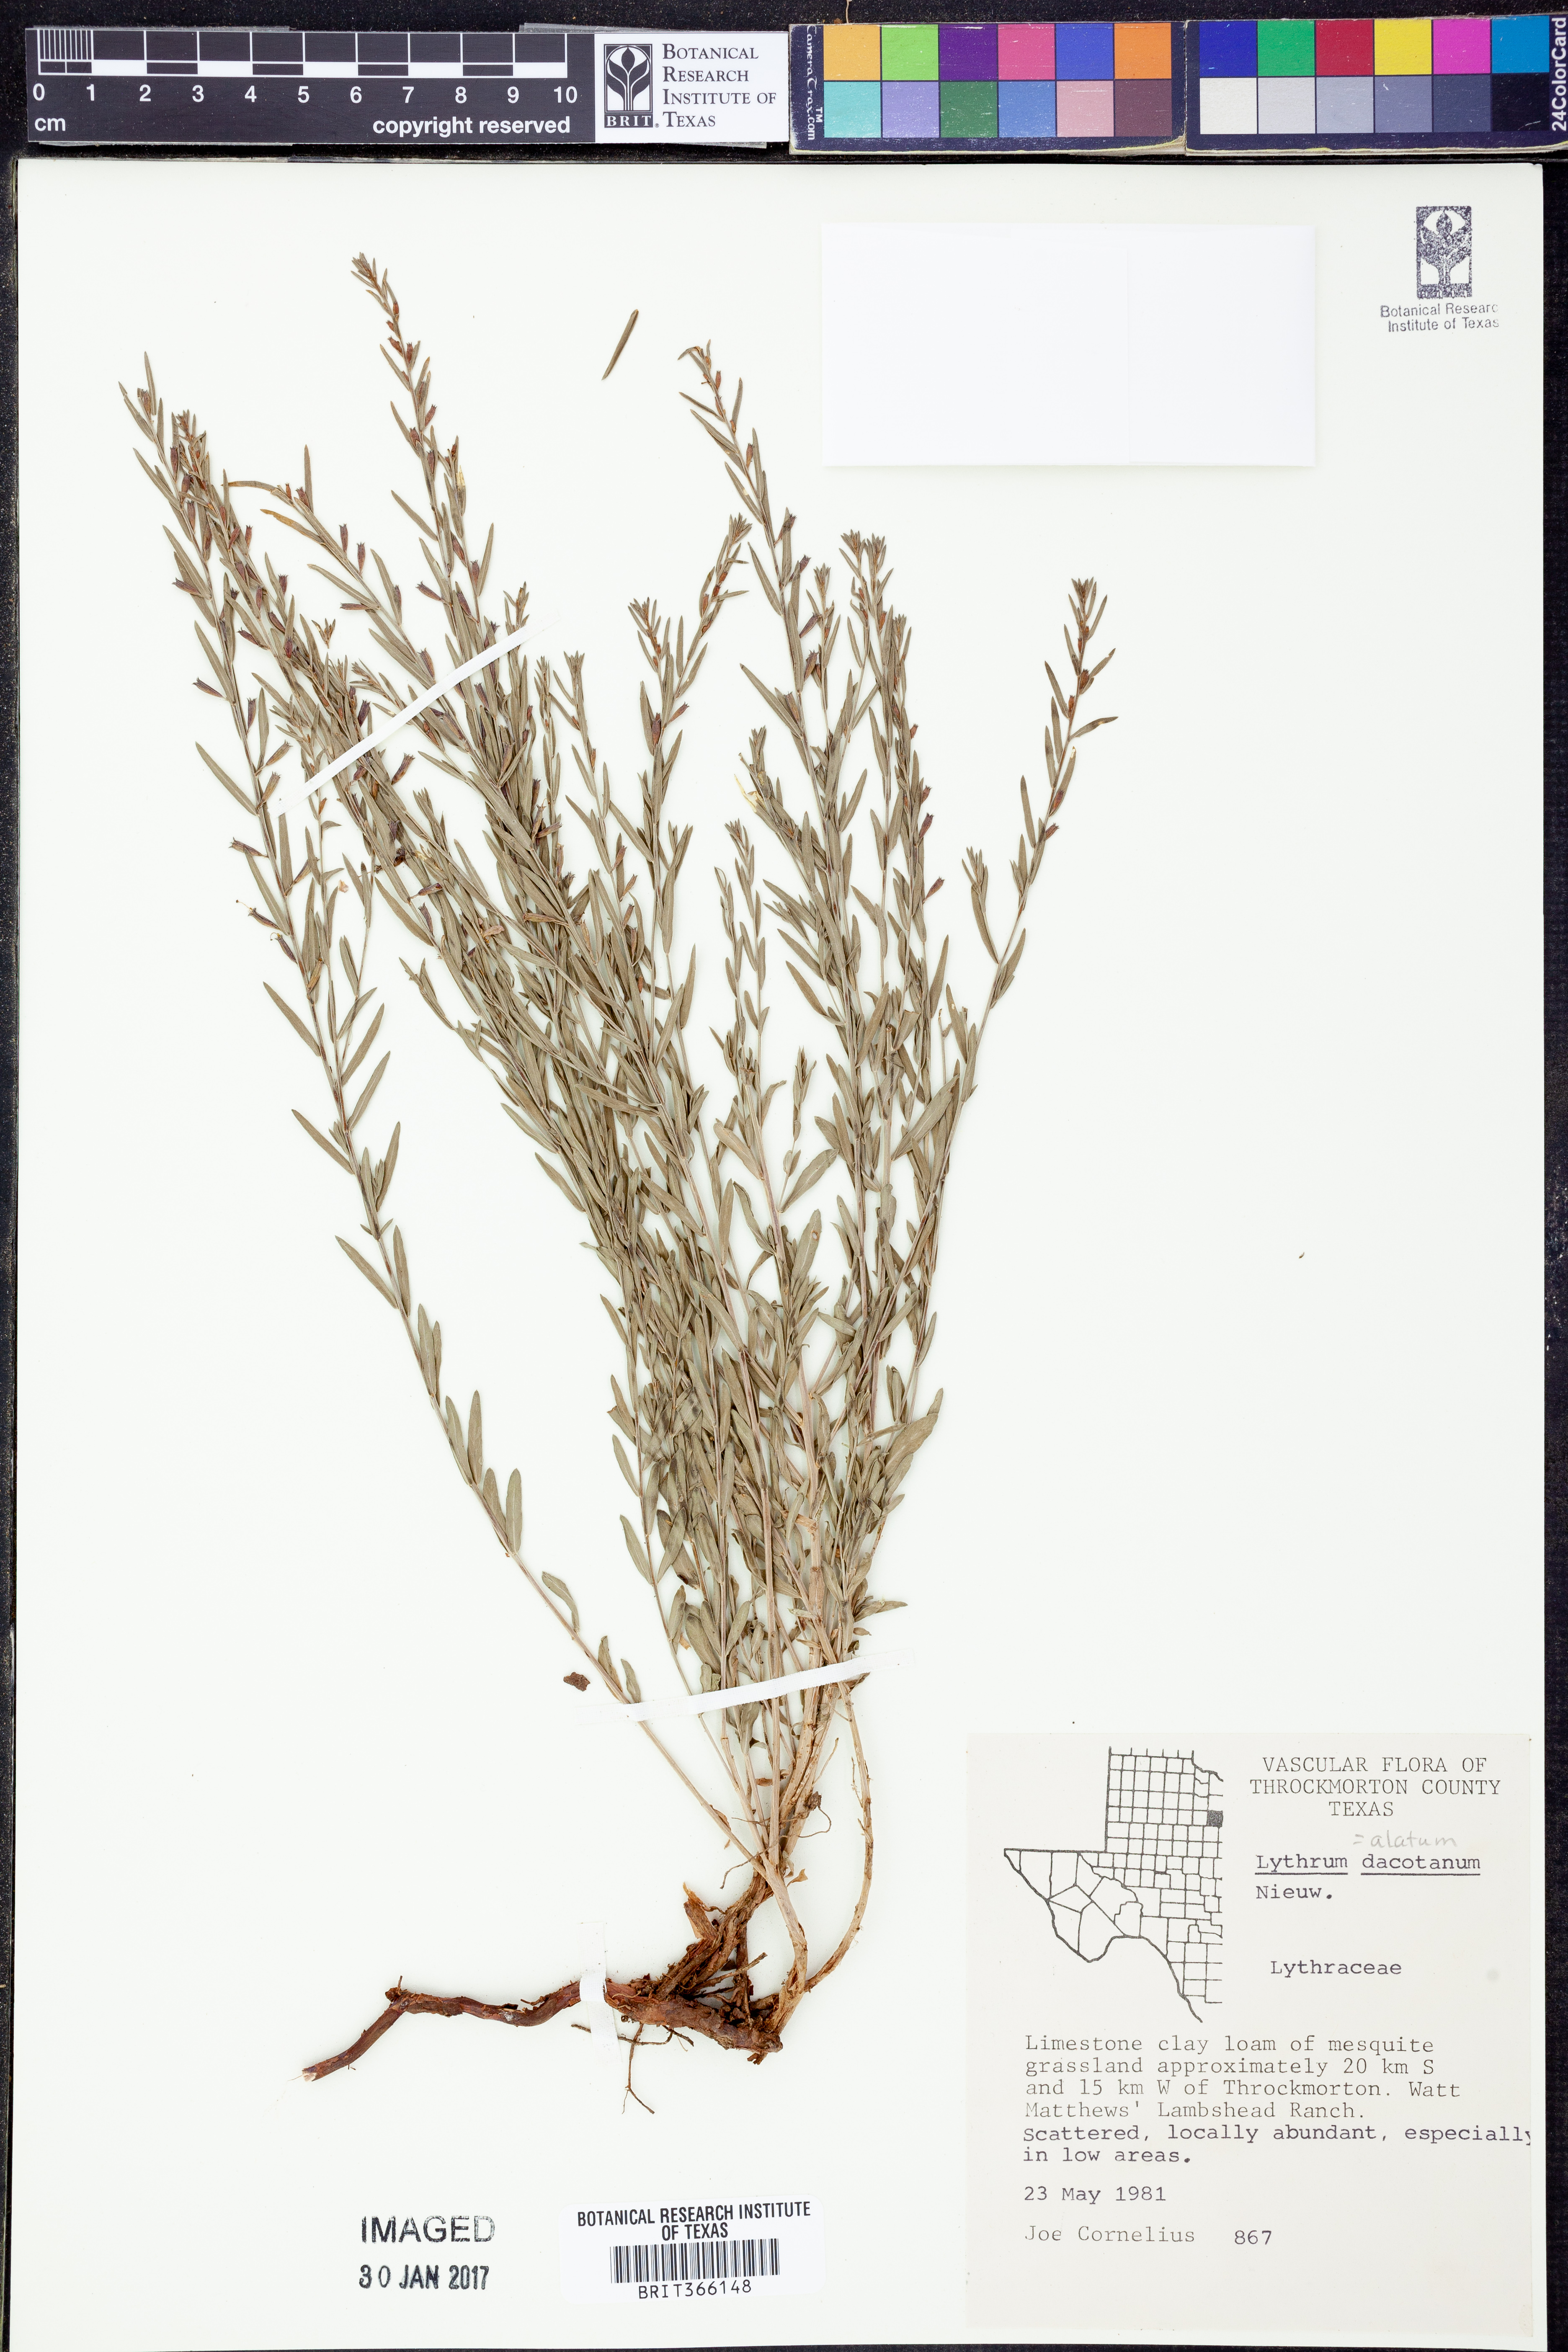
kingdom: Plantae
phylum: Tracheophyta
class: Magnoliopsida
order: Myrtales
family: Lythraceae
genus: Lythrum
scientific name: Lythrum alatum
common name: Winged loosestrife
